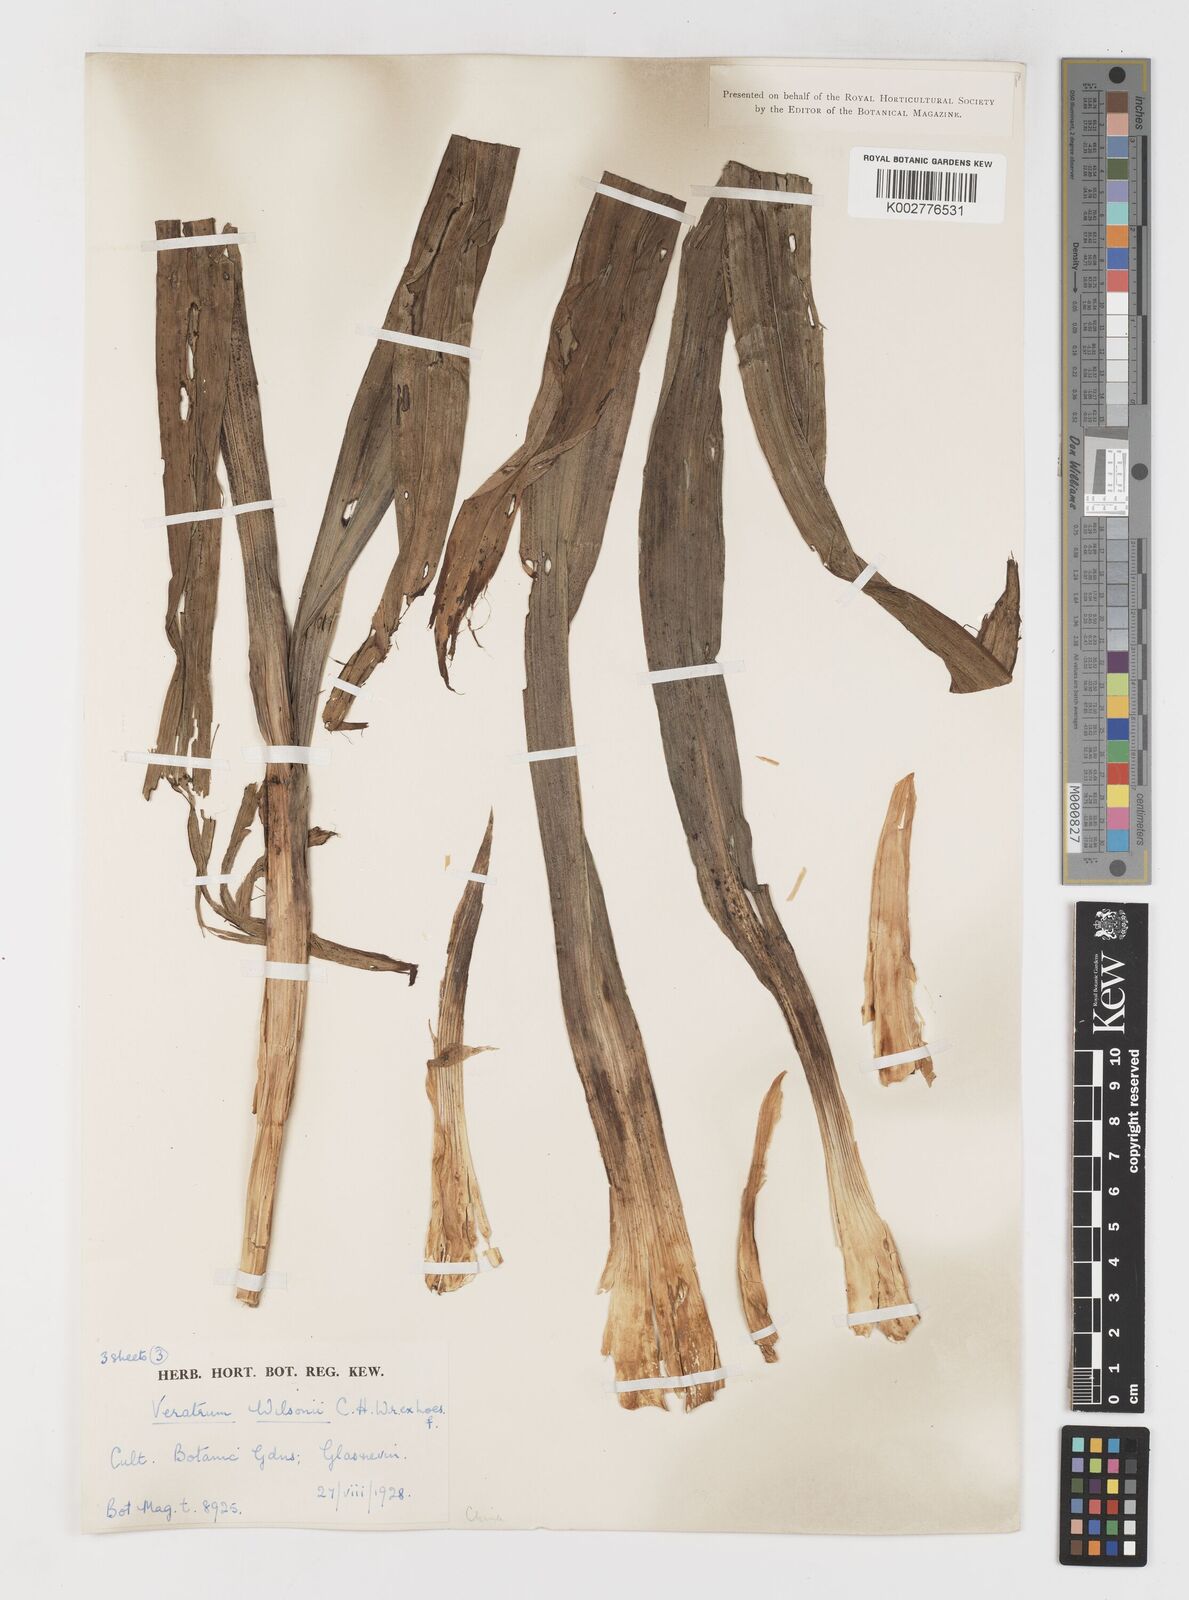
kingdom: Plantae
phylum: Tracheophyta
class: Liliopsida
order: Liliales
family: Melanthiaceae
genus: Veratrum
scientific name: Veratrum mengtzeanum
